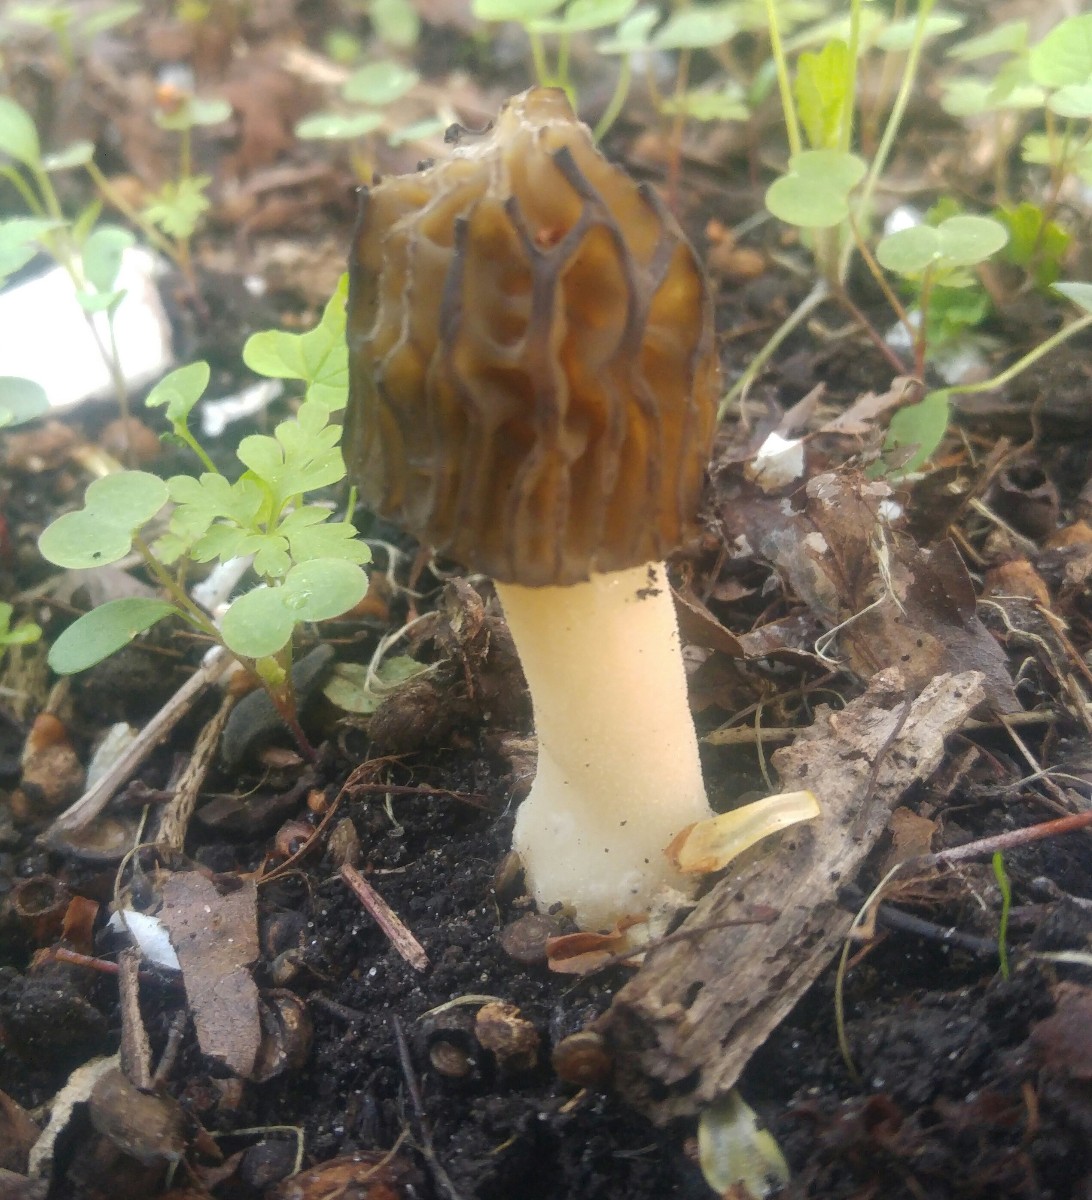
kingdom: Fungi
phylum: Ascomycota
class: Pezizomycetes
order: Pezizales
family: Morchellaceae
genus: Morchella
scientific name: Morchella semilibera
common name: hætte-morkel
